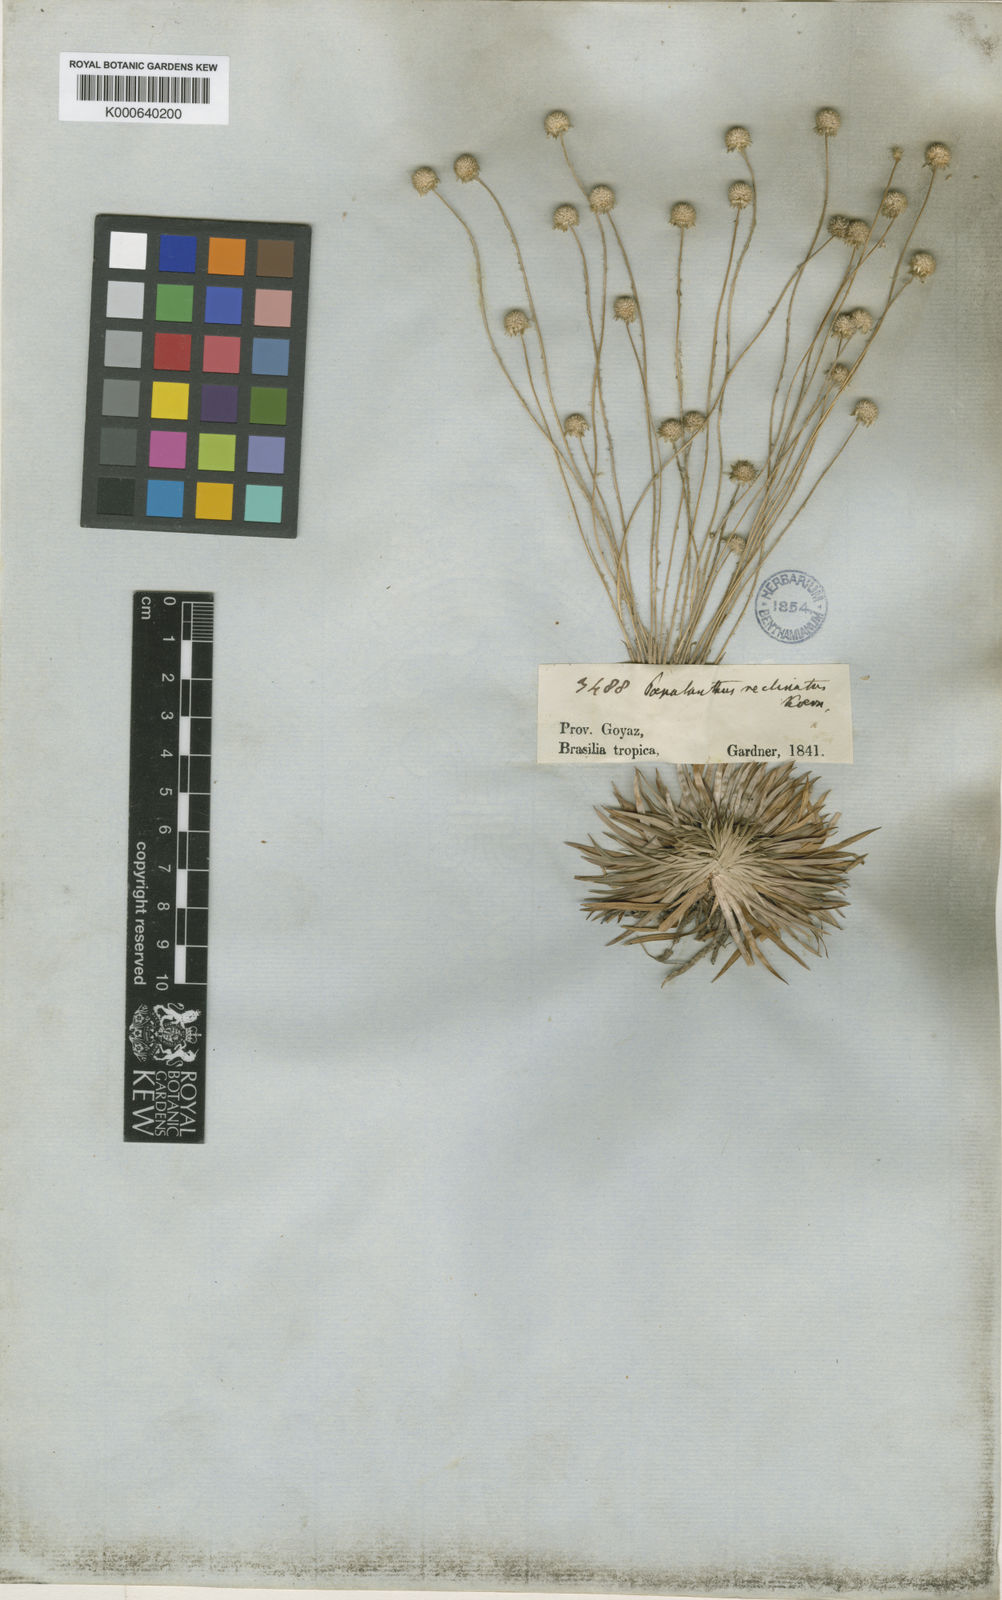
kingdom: Plantae
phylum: Tracheophyta
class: Liliopsida
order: Poales
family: Eriocaulaceae
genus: Syngonanthus
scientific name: Syngonanthus
